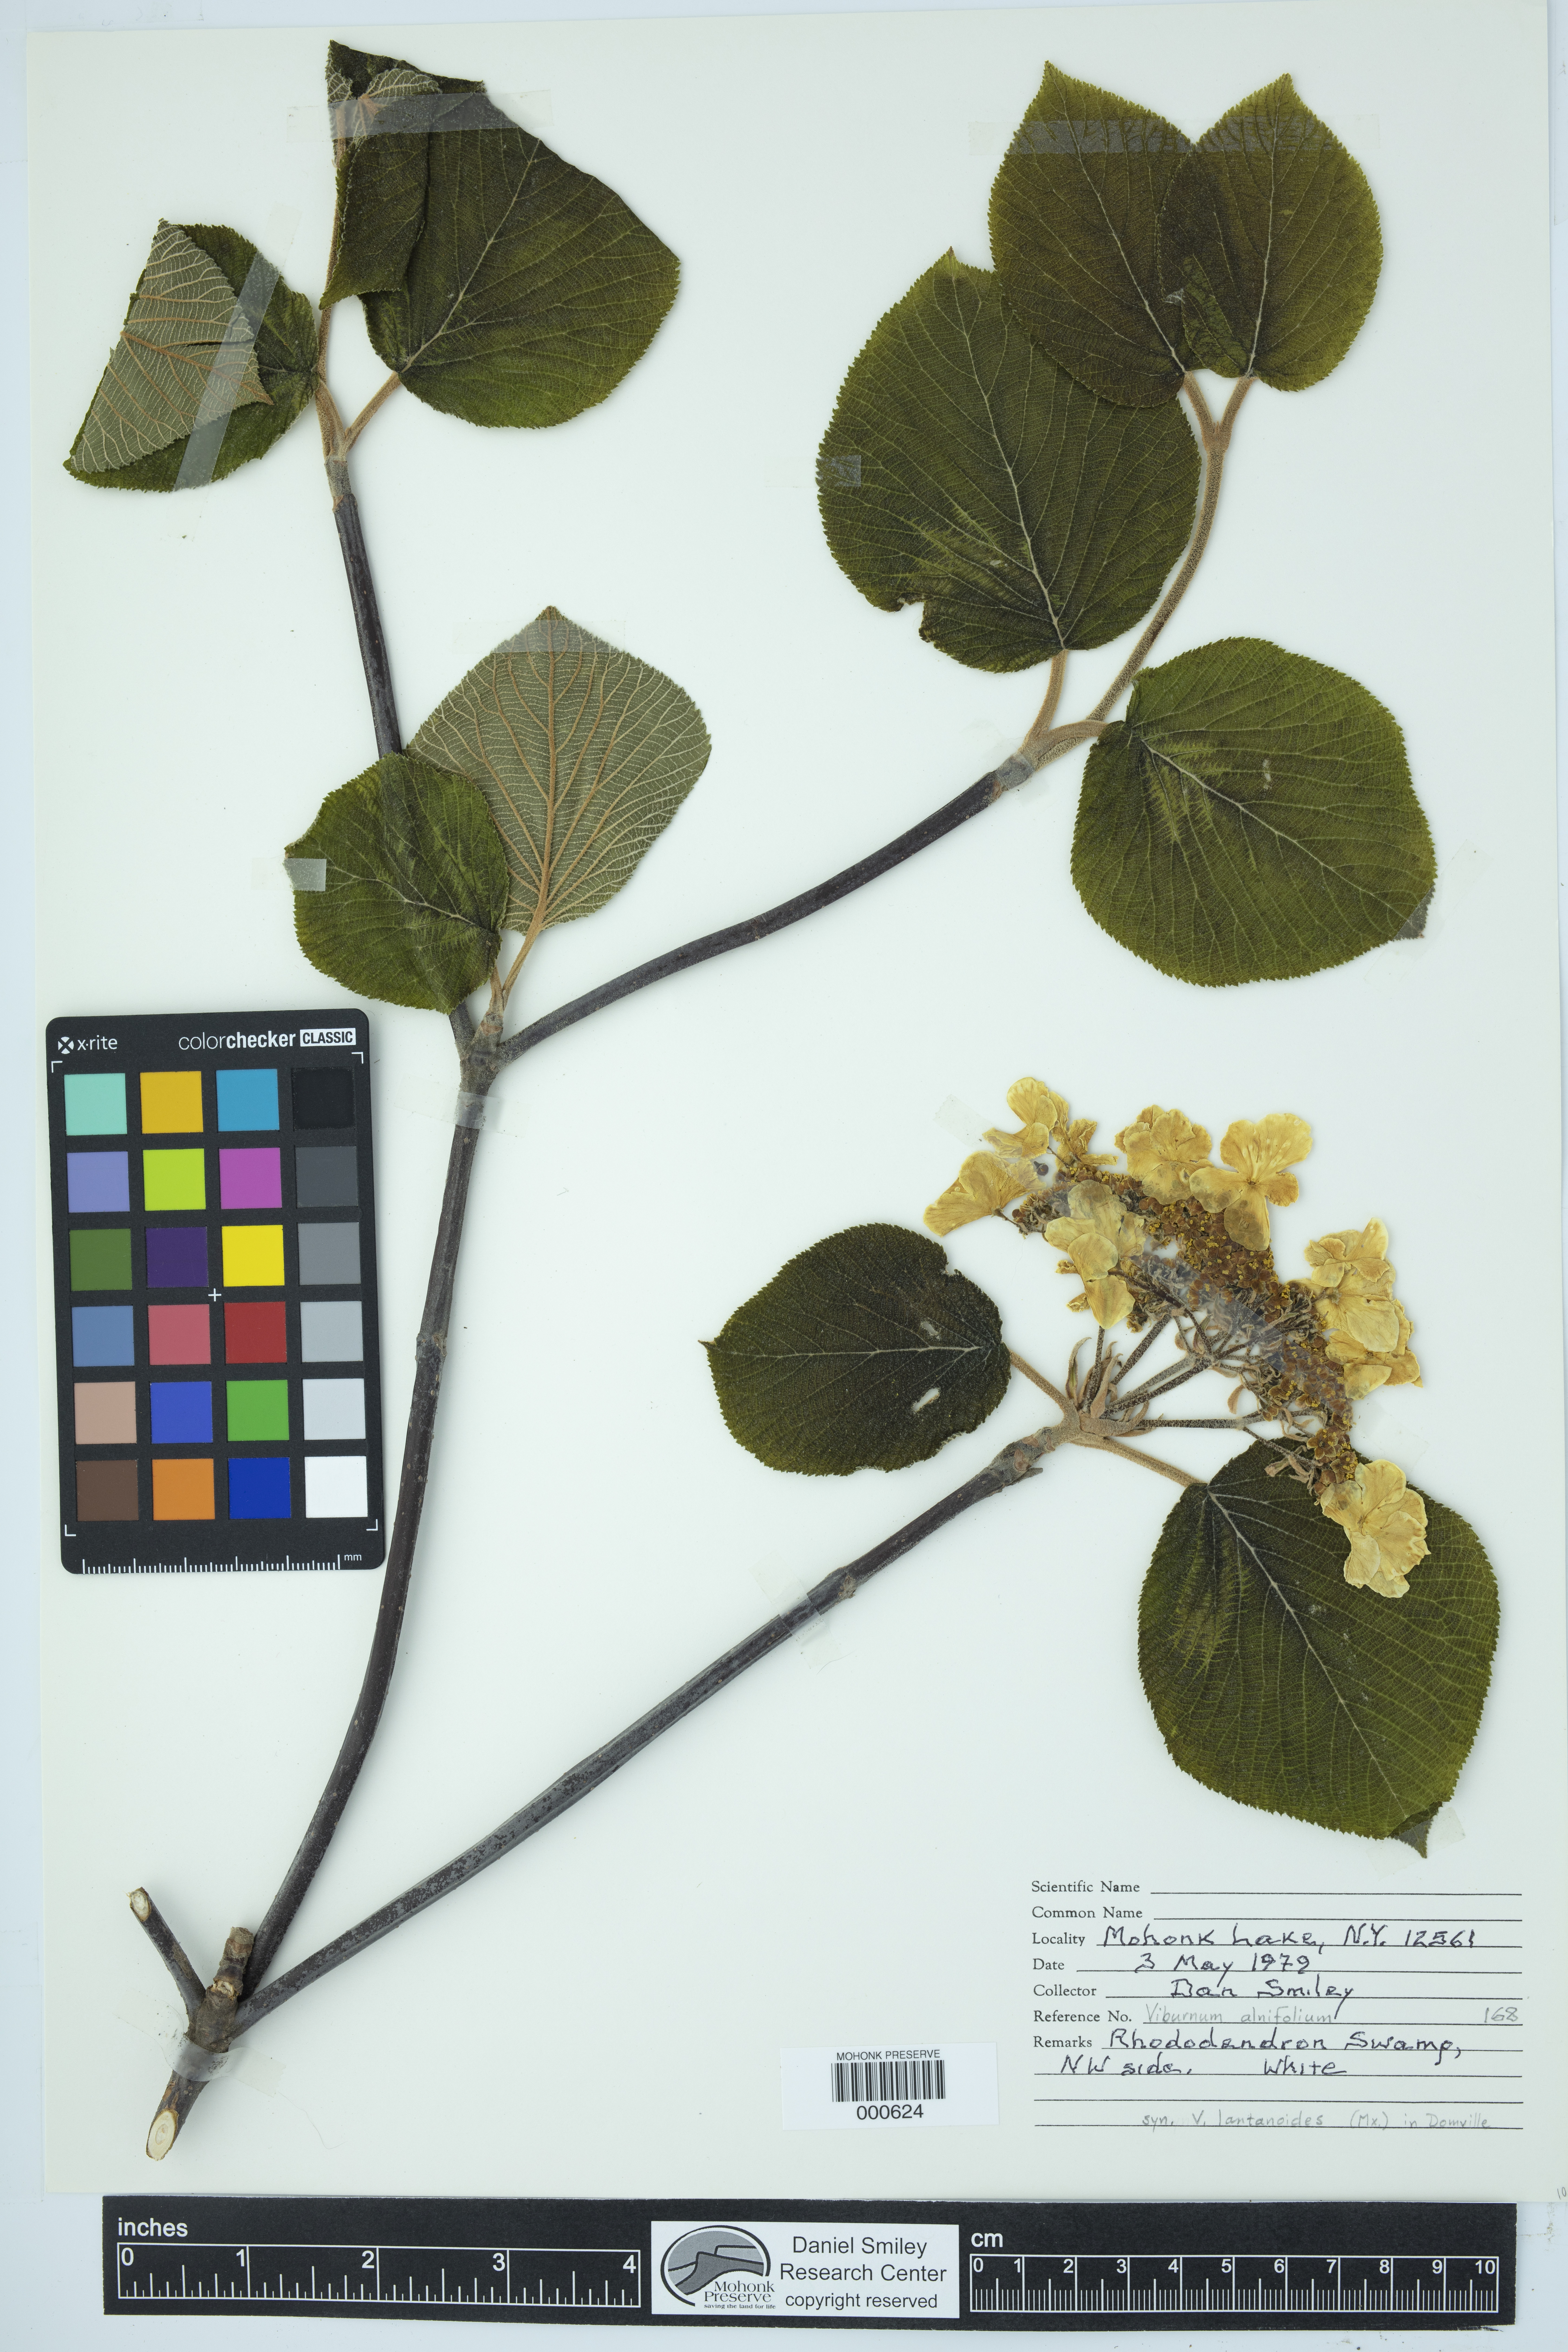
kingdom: Plantae
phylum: Tracheophyta
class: Magnoliopsida
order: Dipsacales
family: Viburnaceae
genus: Viburnum
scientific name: Viburnum lantanoides
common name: Hobblebush
